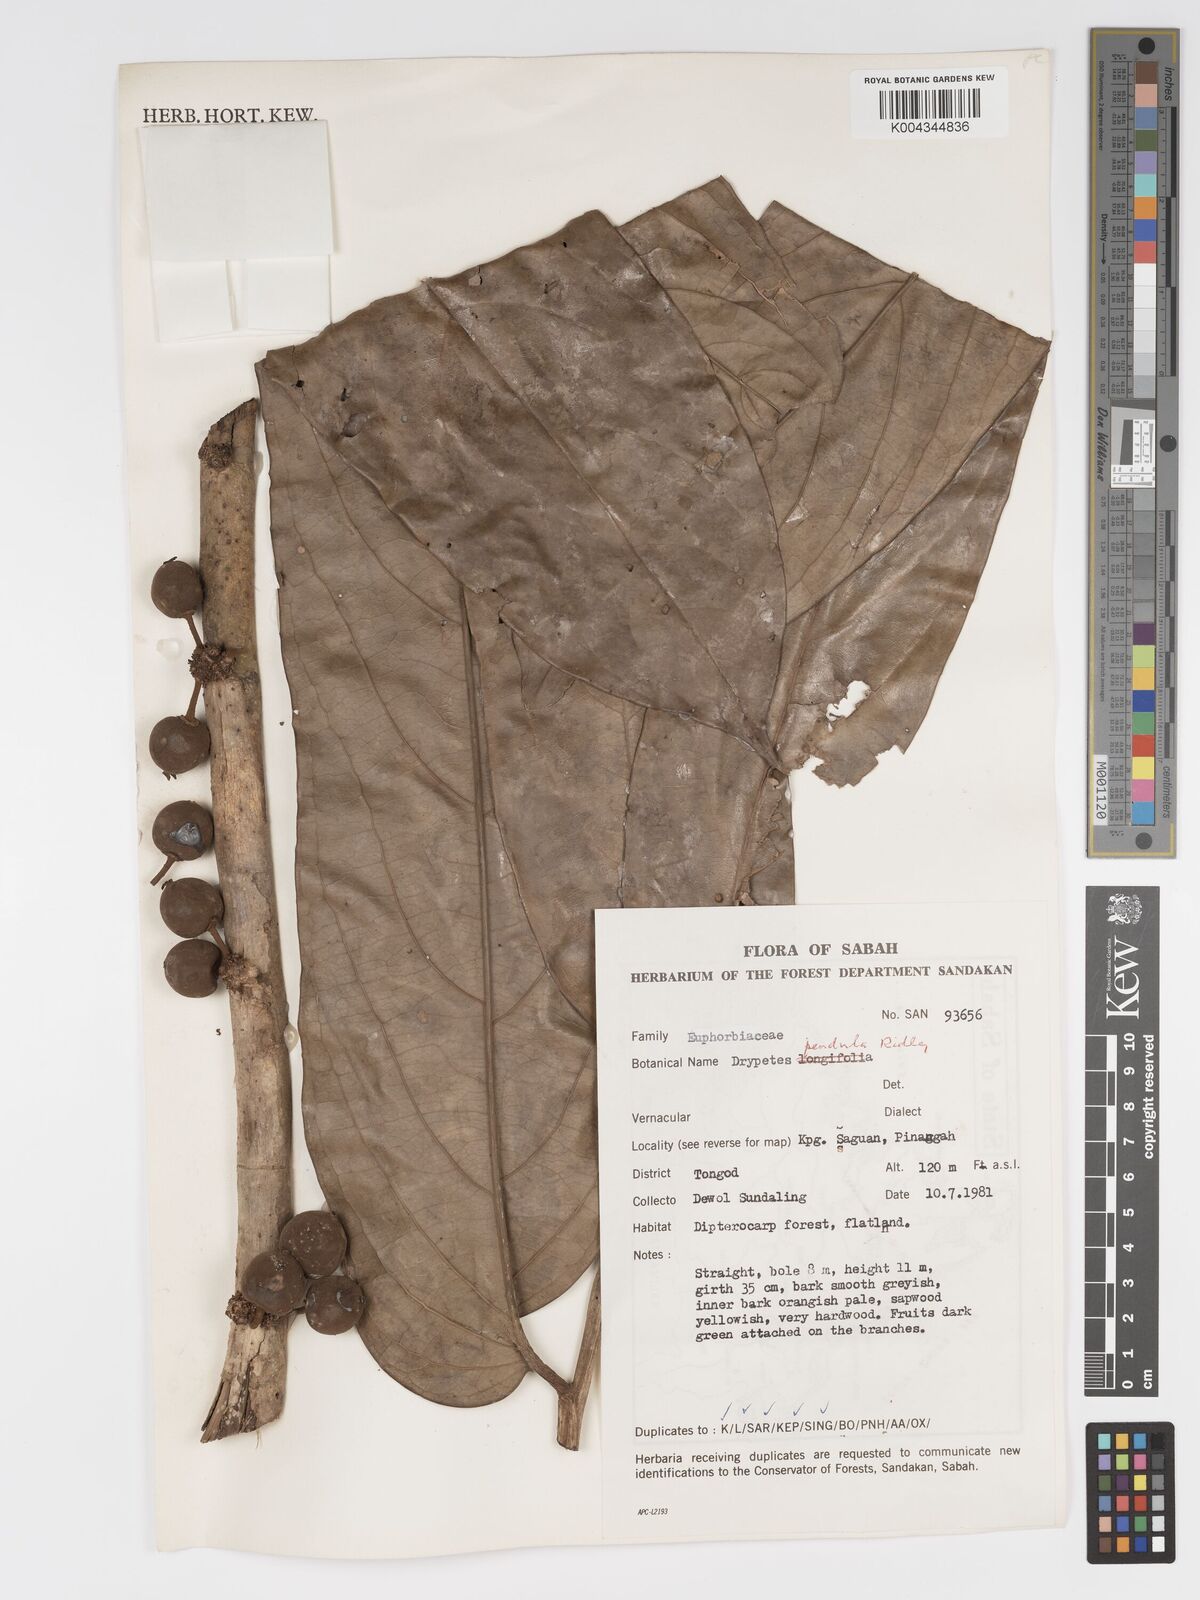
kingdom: Plantae
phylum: Tracheophyta
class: Magnoliopsida
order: Malpighiales
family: Putranjivaceae
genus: Drypetes
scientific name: Drypetes pendula
